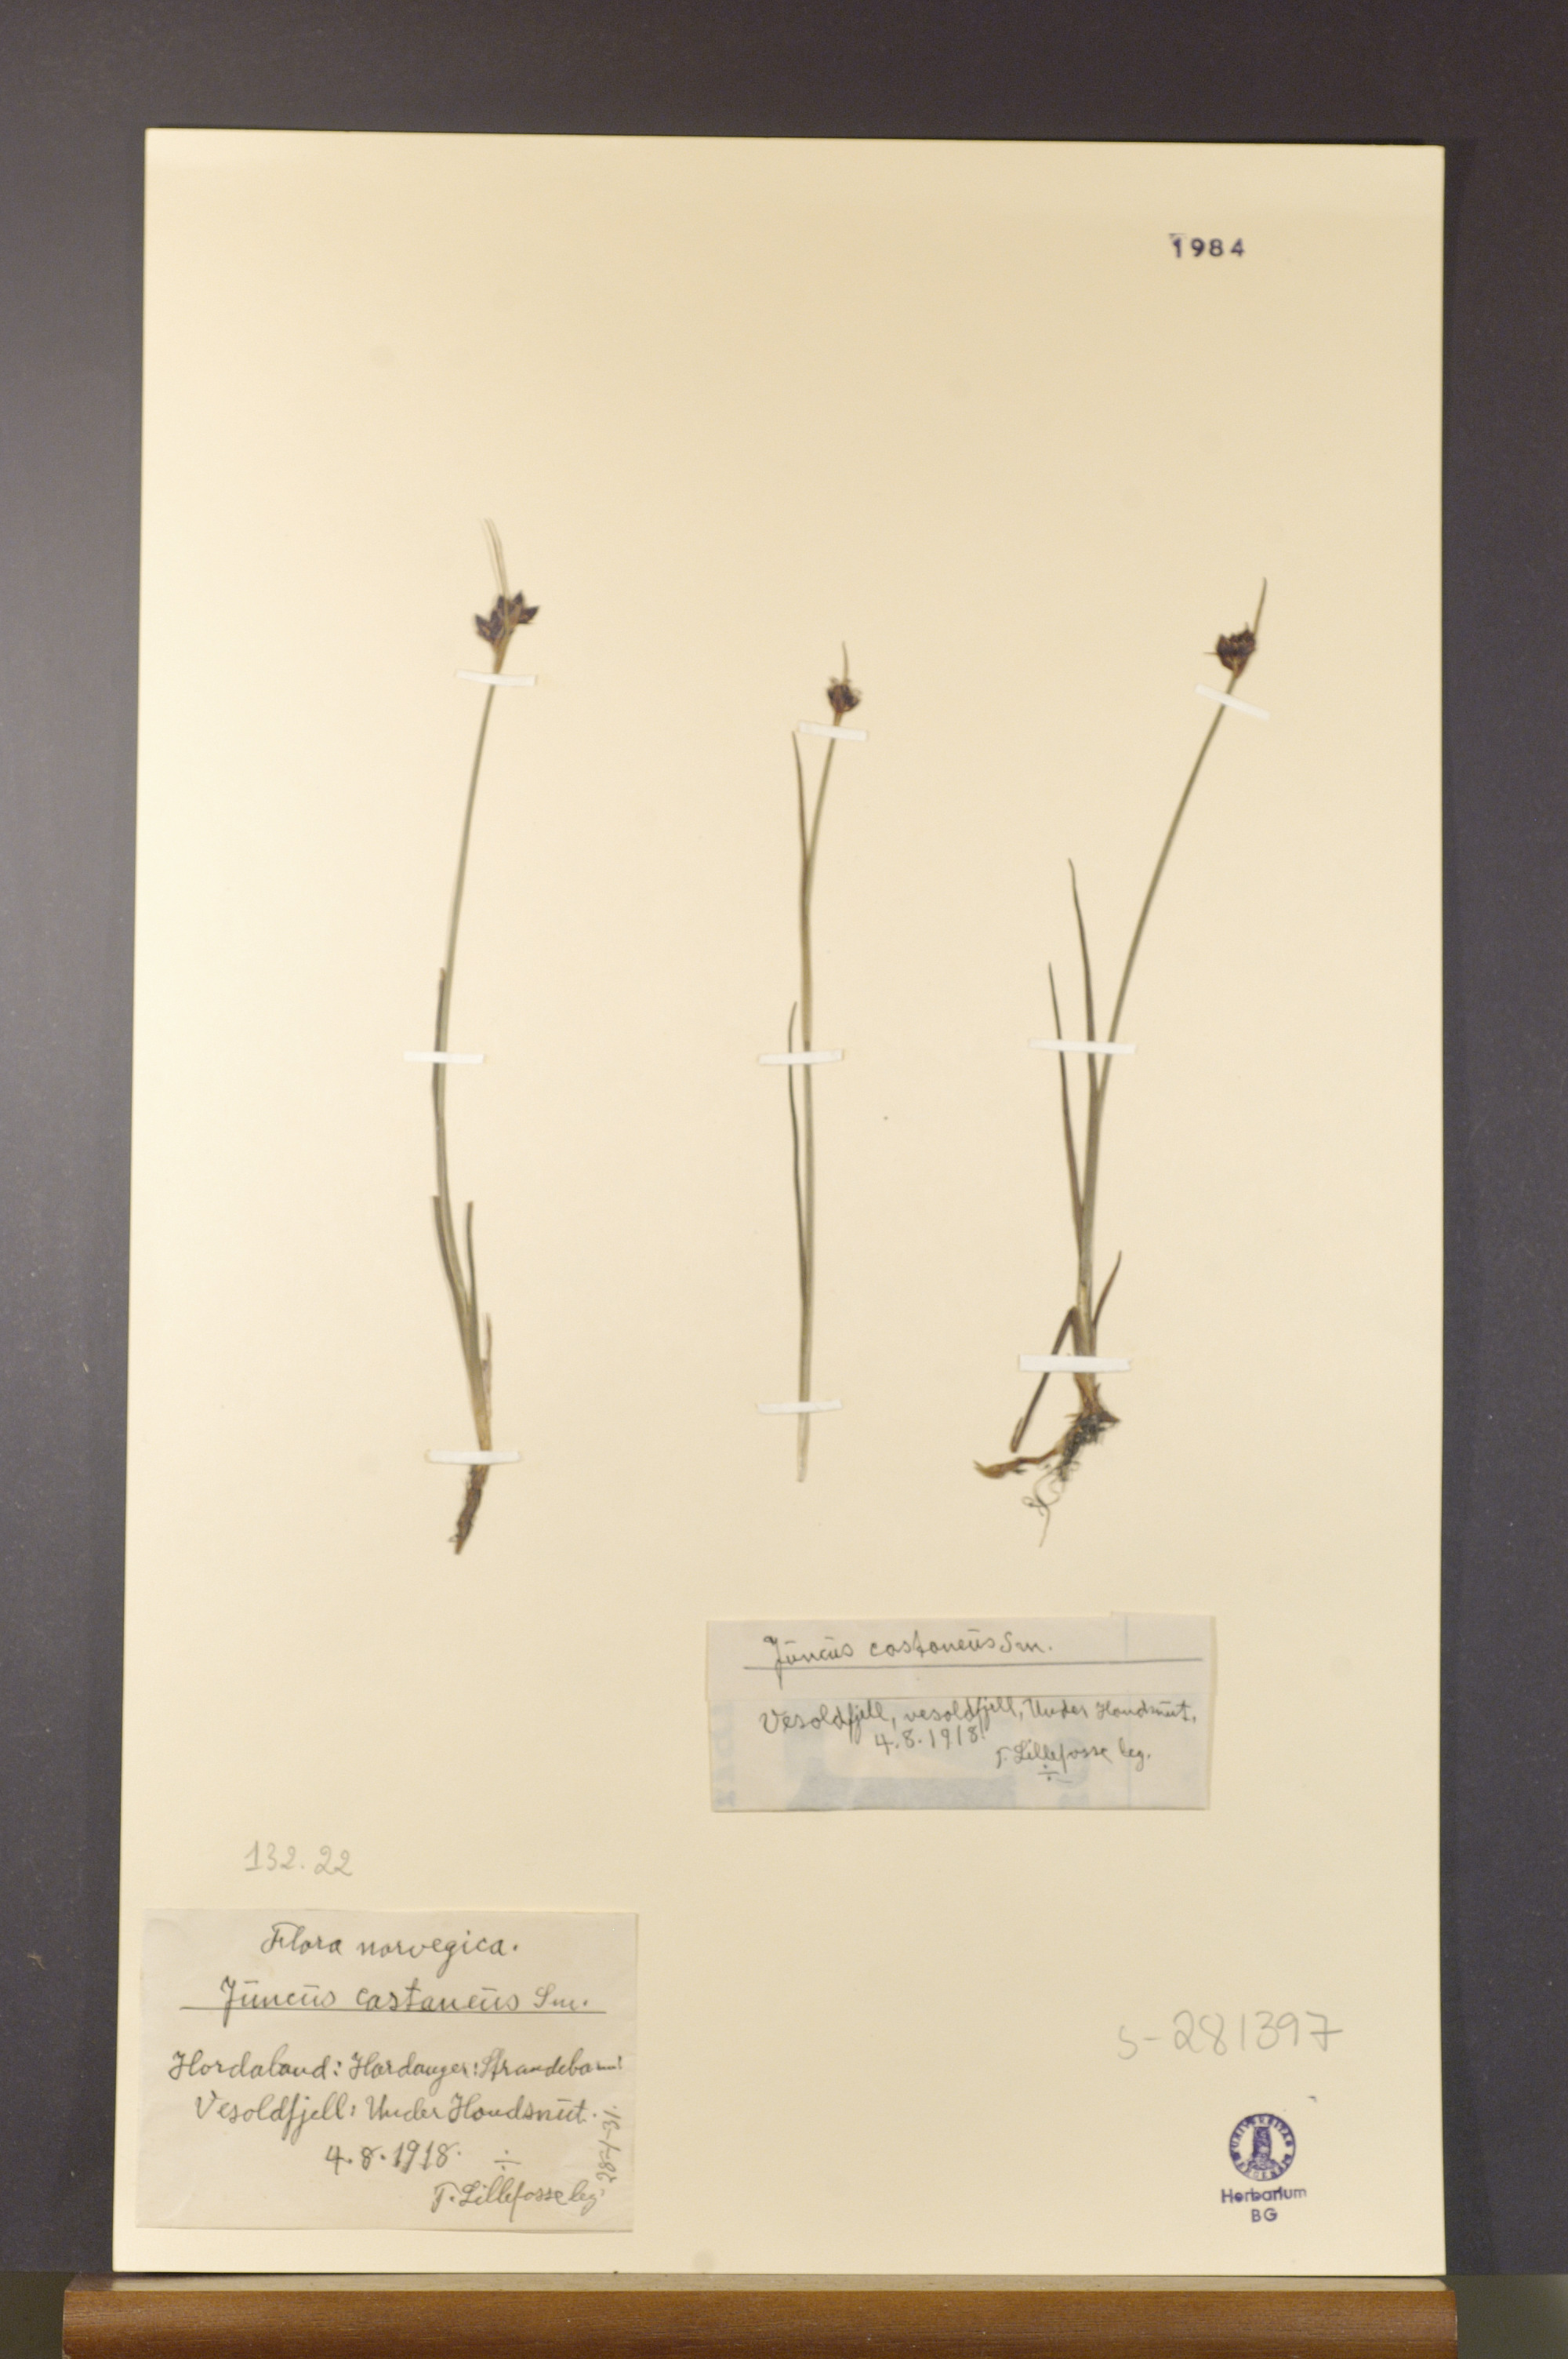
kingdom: Plantae
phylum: Tracheophyta
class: Liliopsida
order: Poales
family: Juncaceae
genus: Juncus
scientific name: Juncus castaneus
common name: Chestnut rush
